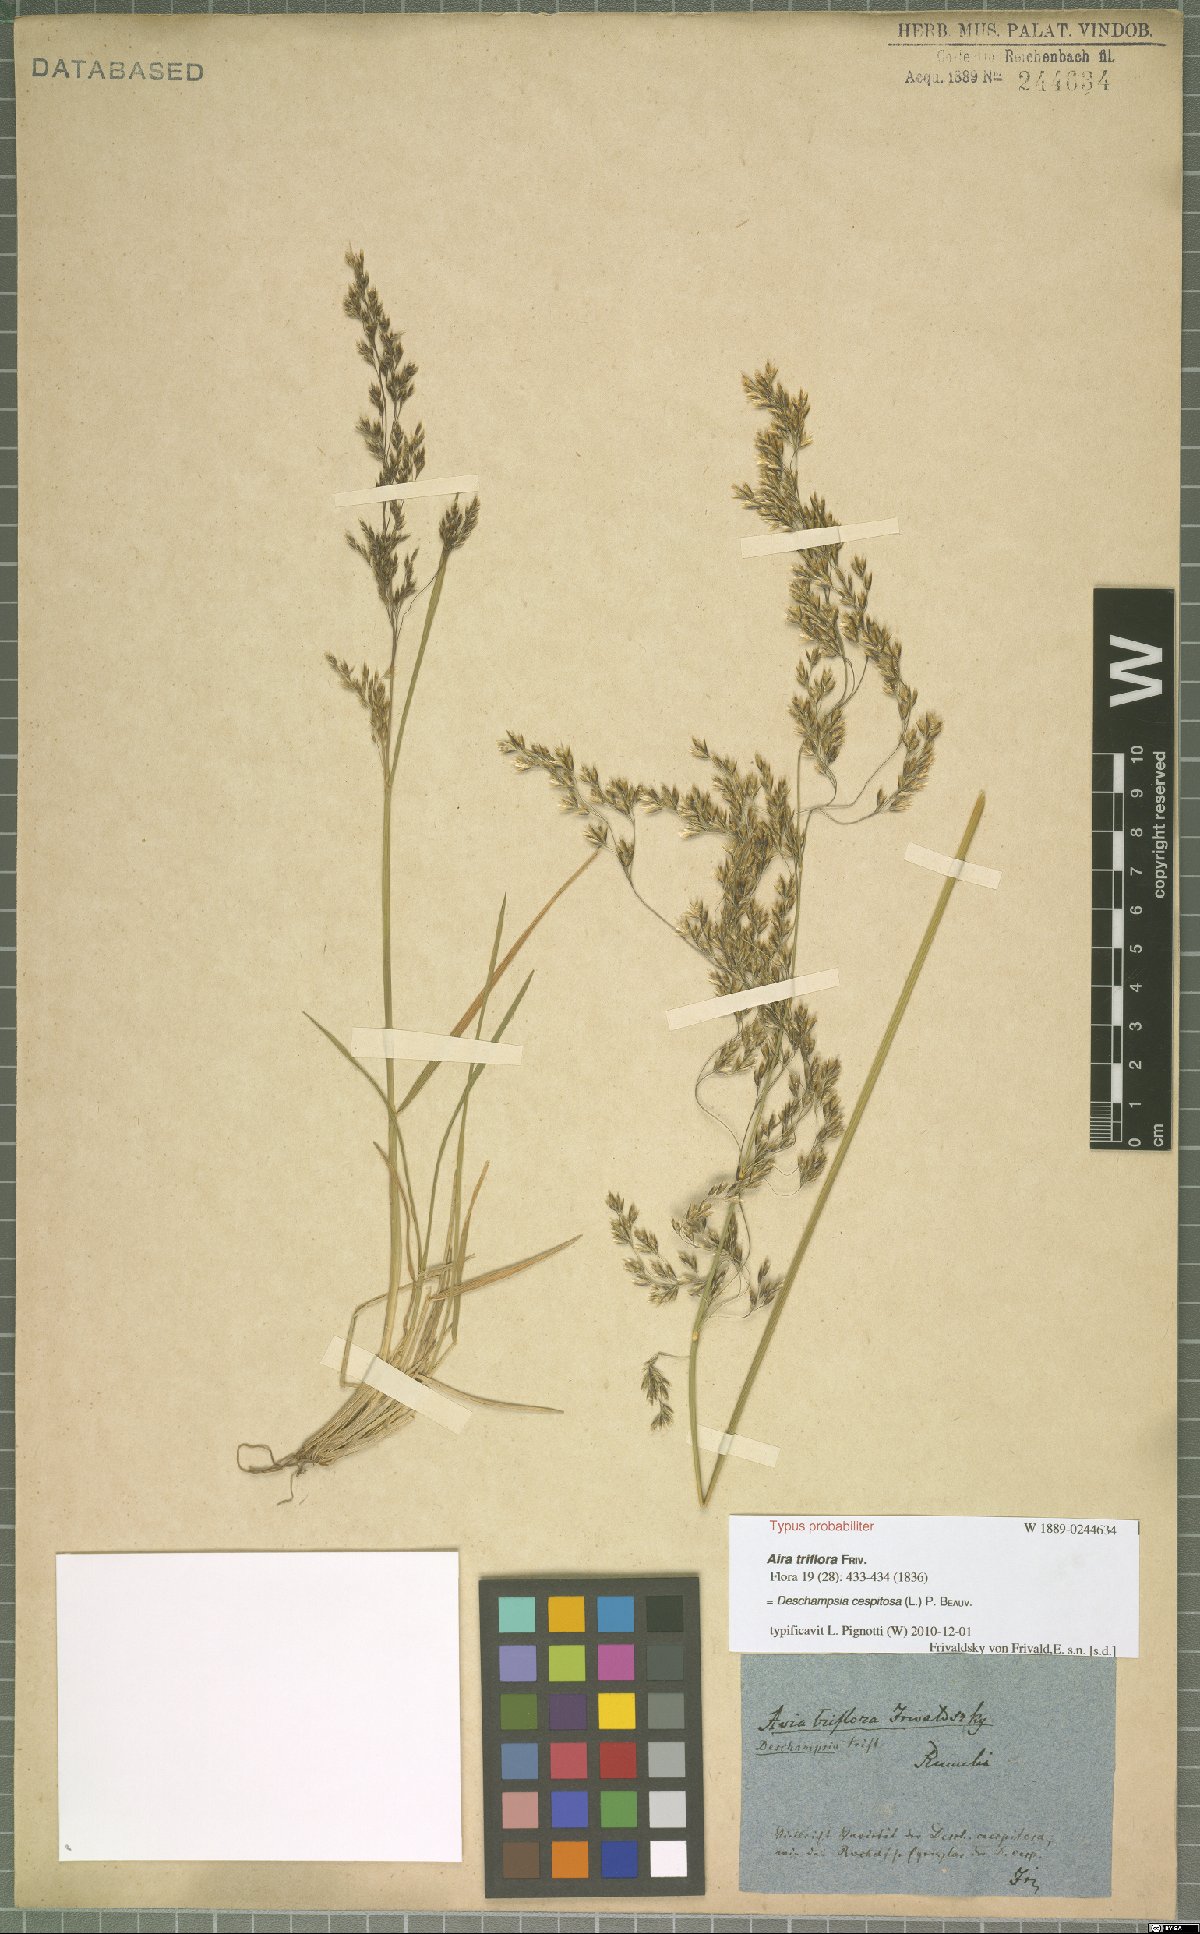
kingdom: Plantae
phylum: Tracheophyta
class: Liliopsida
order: Poales
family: Poaceae
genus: Deschampsia
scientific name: Deschampsia cespitosa
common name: Tufted hair-grass
